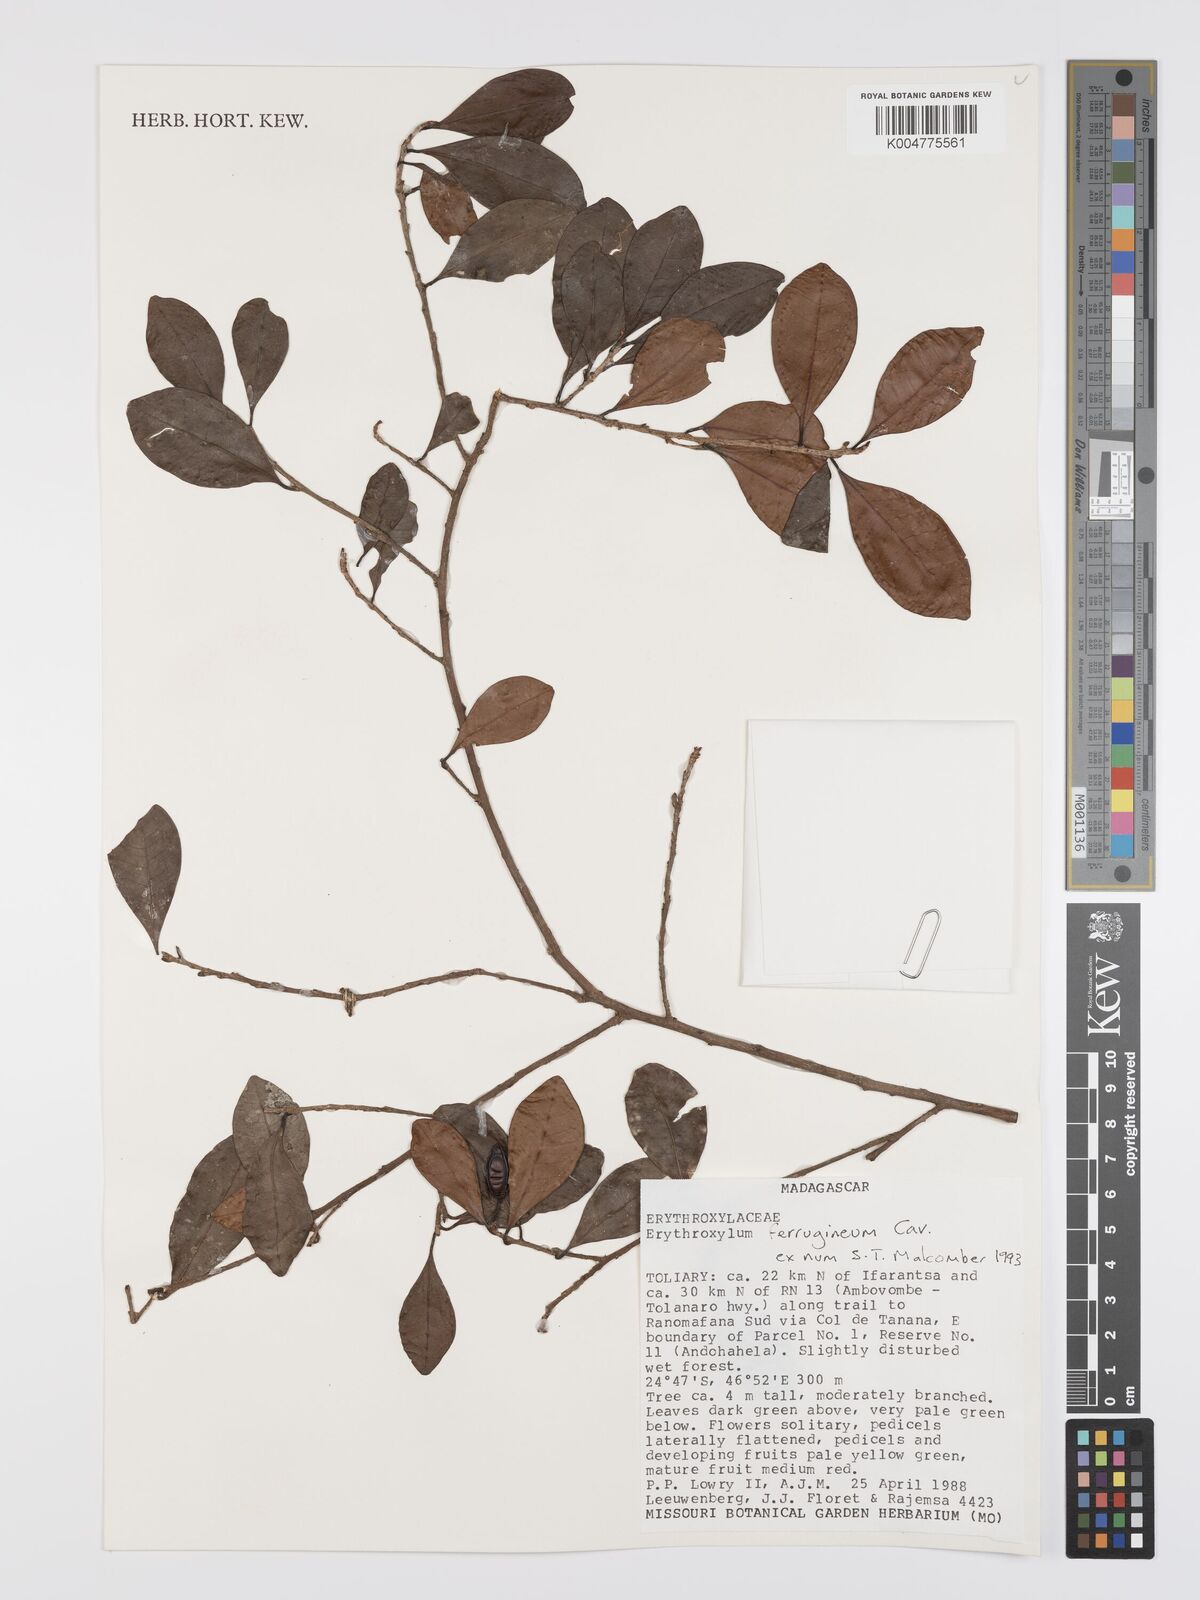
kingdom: Plantae
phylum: Tracheophyta
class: Magnoliopsida
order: Malpighiales
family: Erythroxylaceae
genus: Erythroxylum
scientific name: Erythroxylum ferrugineum
